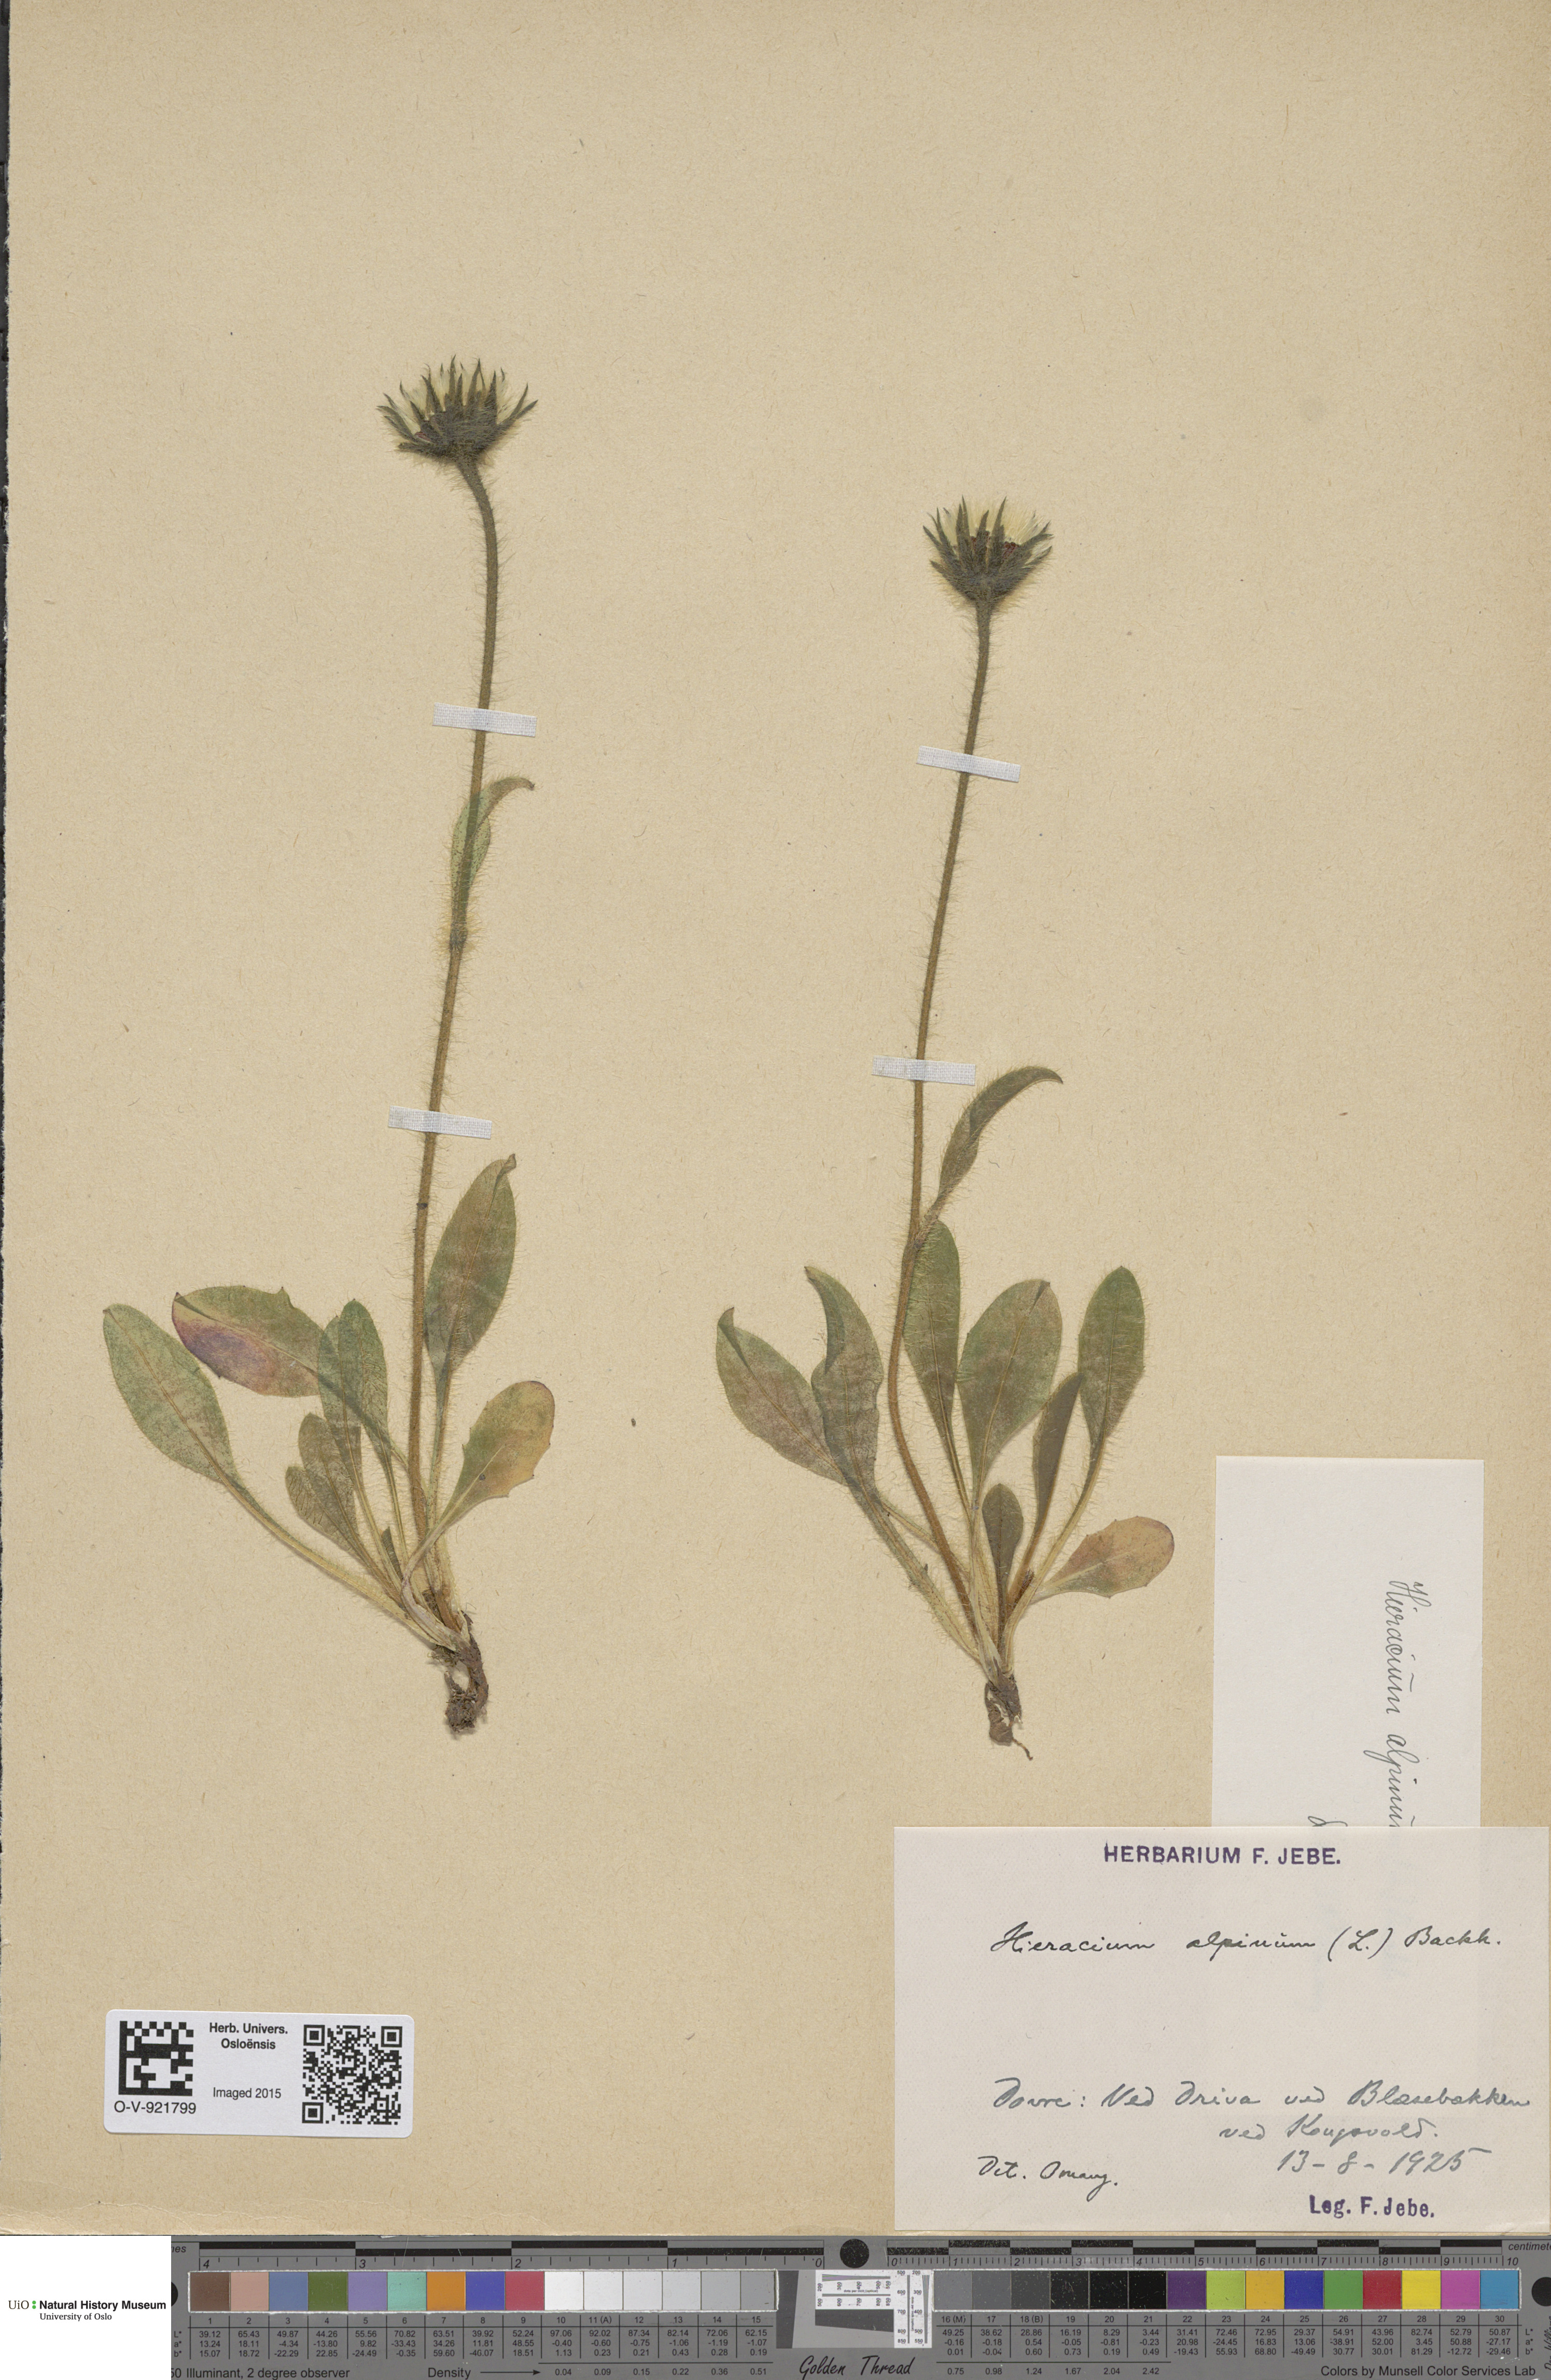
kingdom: Plantae
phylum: Tracheophyta
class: Magnoliopsida
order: Asterales
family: Asteraceae
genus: Hieracium
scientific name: Hieracium alpinum
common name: Alpine hawkweed
